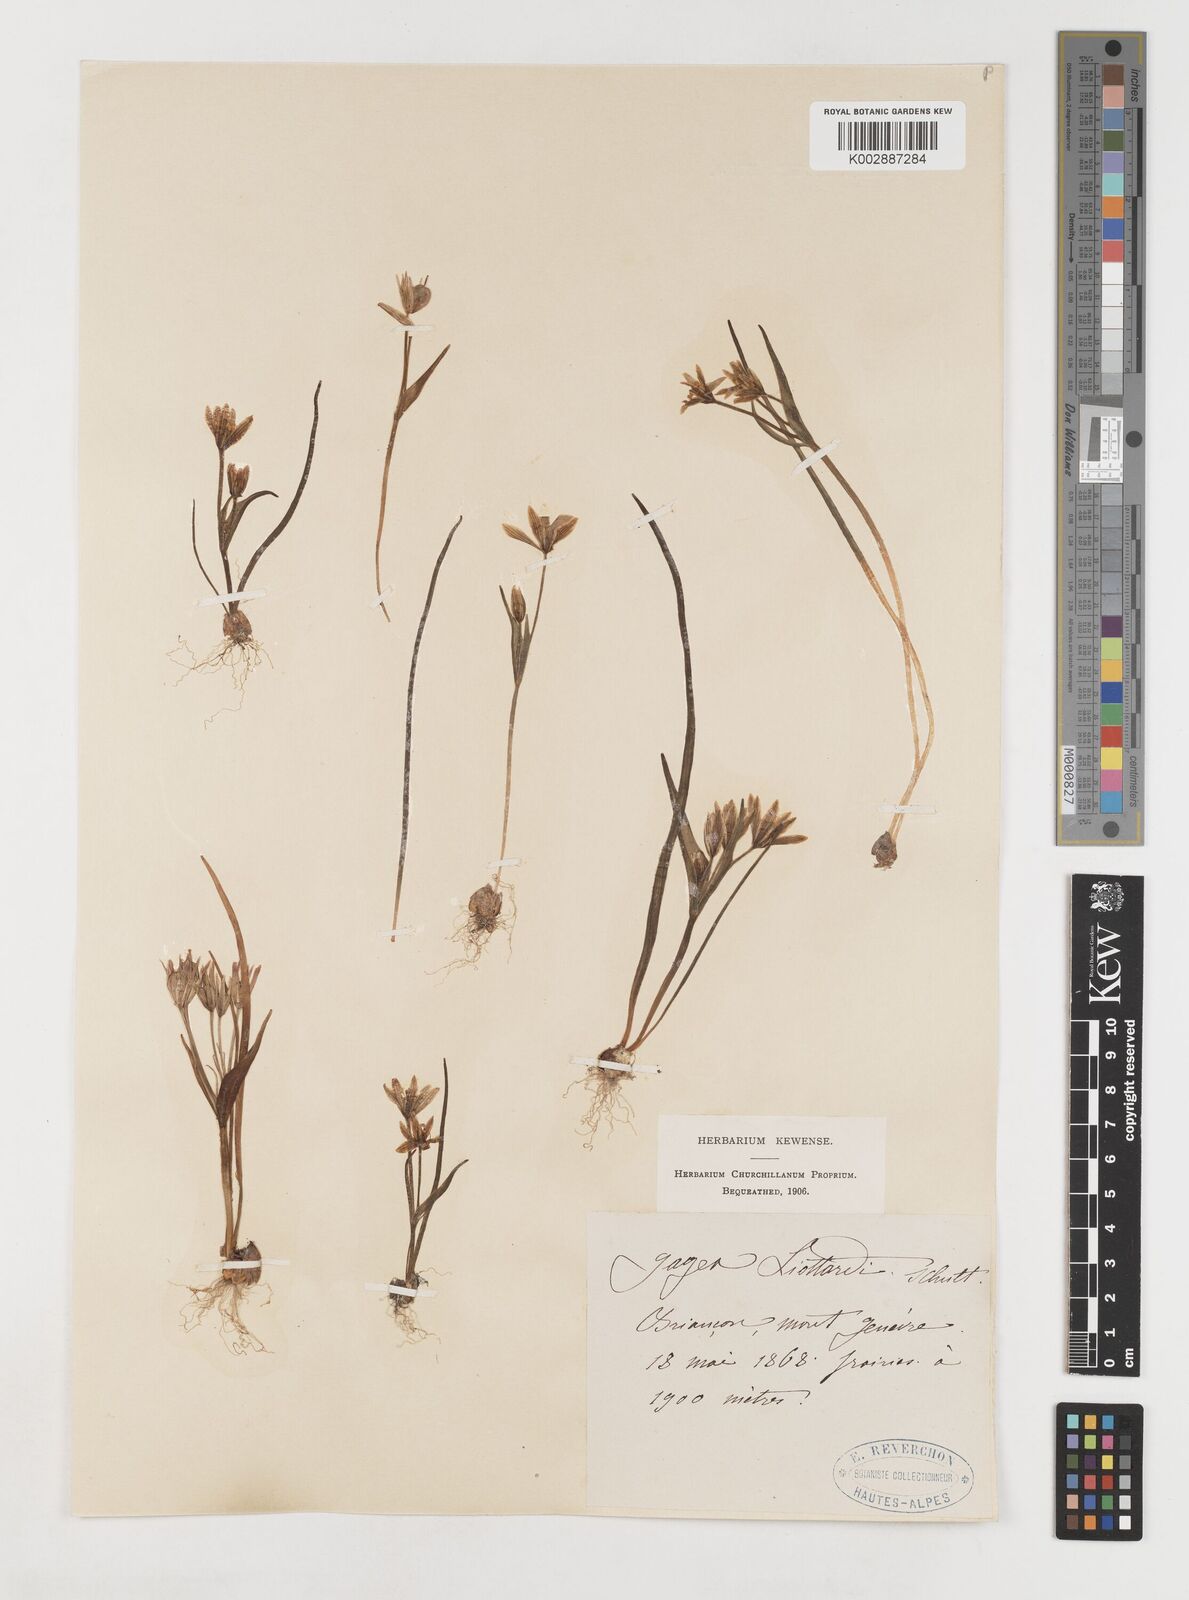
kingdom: Plantae
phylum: Tracheophyta
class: Liliopsida
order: Liliales
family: Liliaceae
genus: Gagea
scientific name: Gagea bohemica
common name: Early star-of-bethlehem
